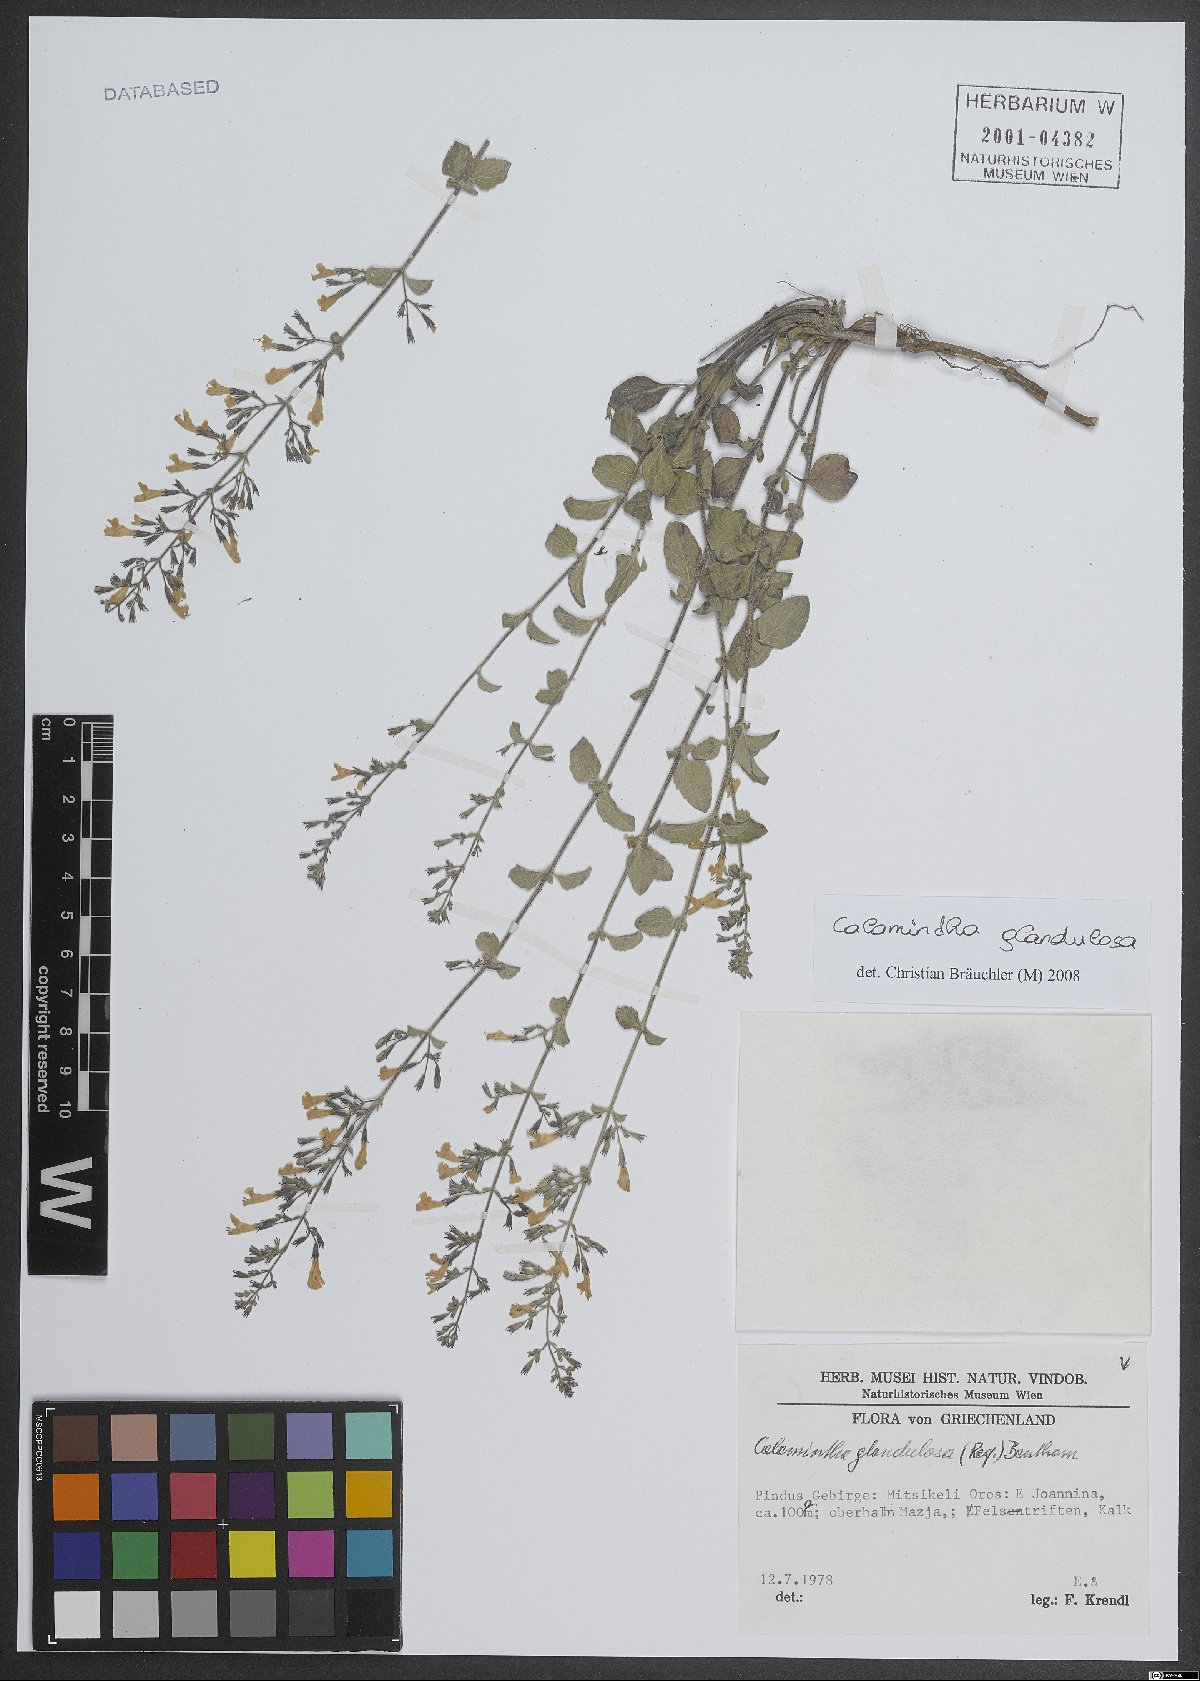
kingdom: Plantae
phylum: Tracheophyta
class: Magnoliopsida
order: Lamiales
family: Lamiaceae
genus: Clinopodium
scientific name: Clinopodium nepeta
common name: Lesser calamint
